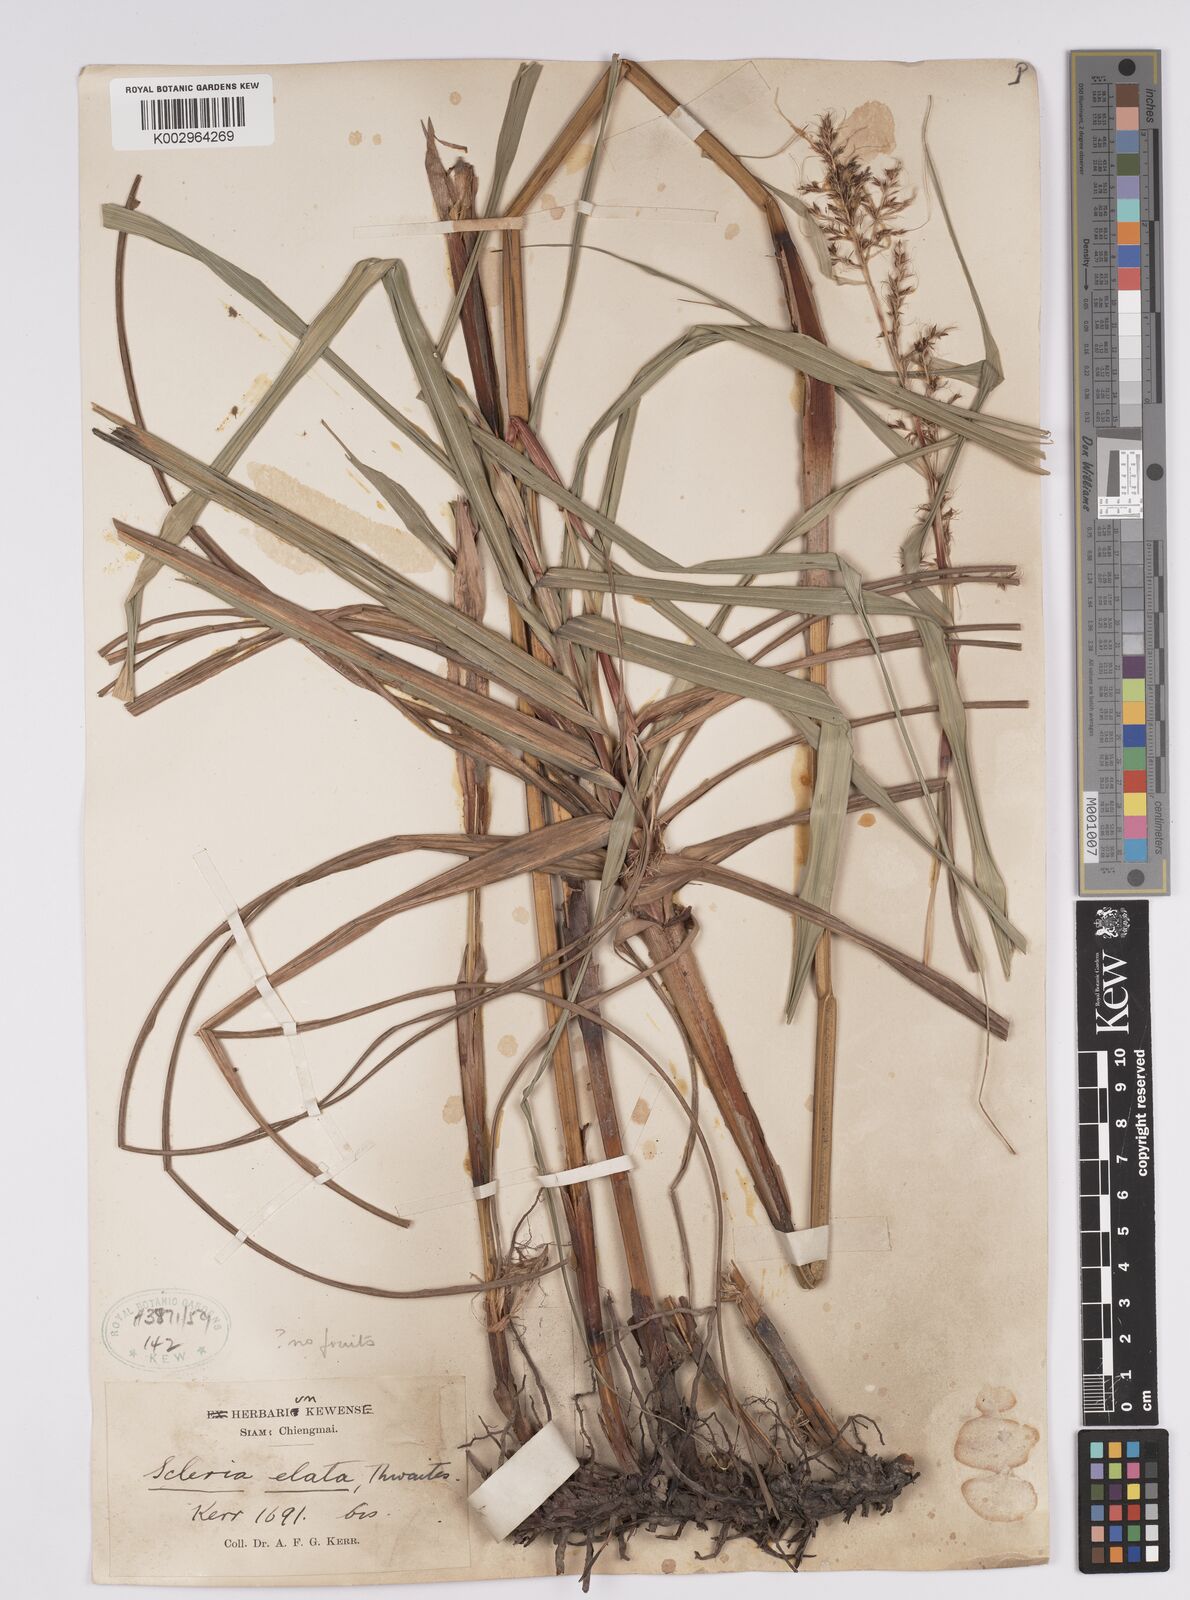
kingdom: Plantae
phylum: Tracheophyta
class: Liliopsida
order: Poales
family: Cyperaceae
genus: Scleria
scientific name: Scleria
